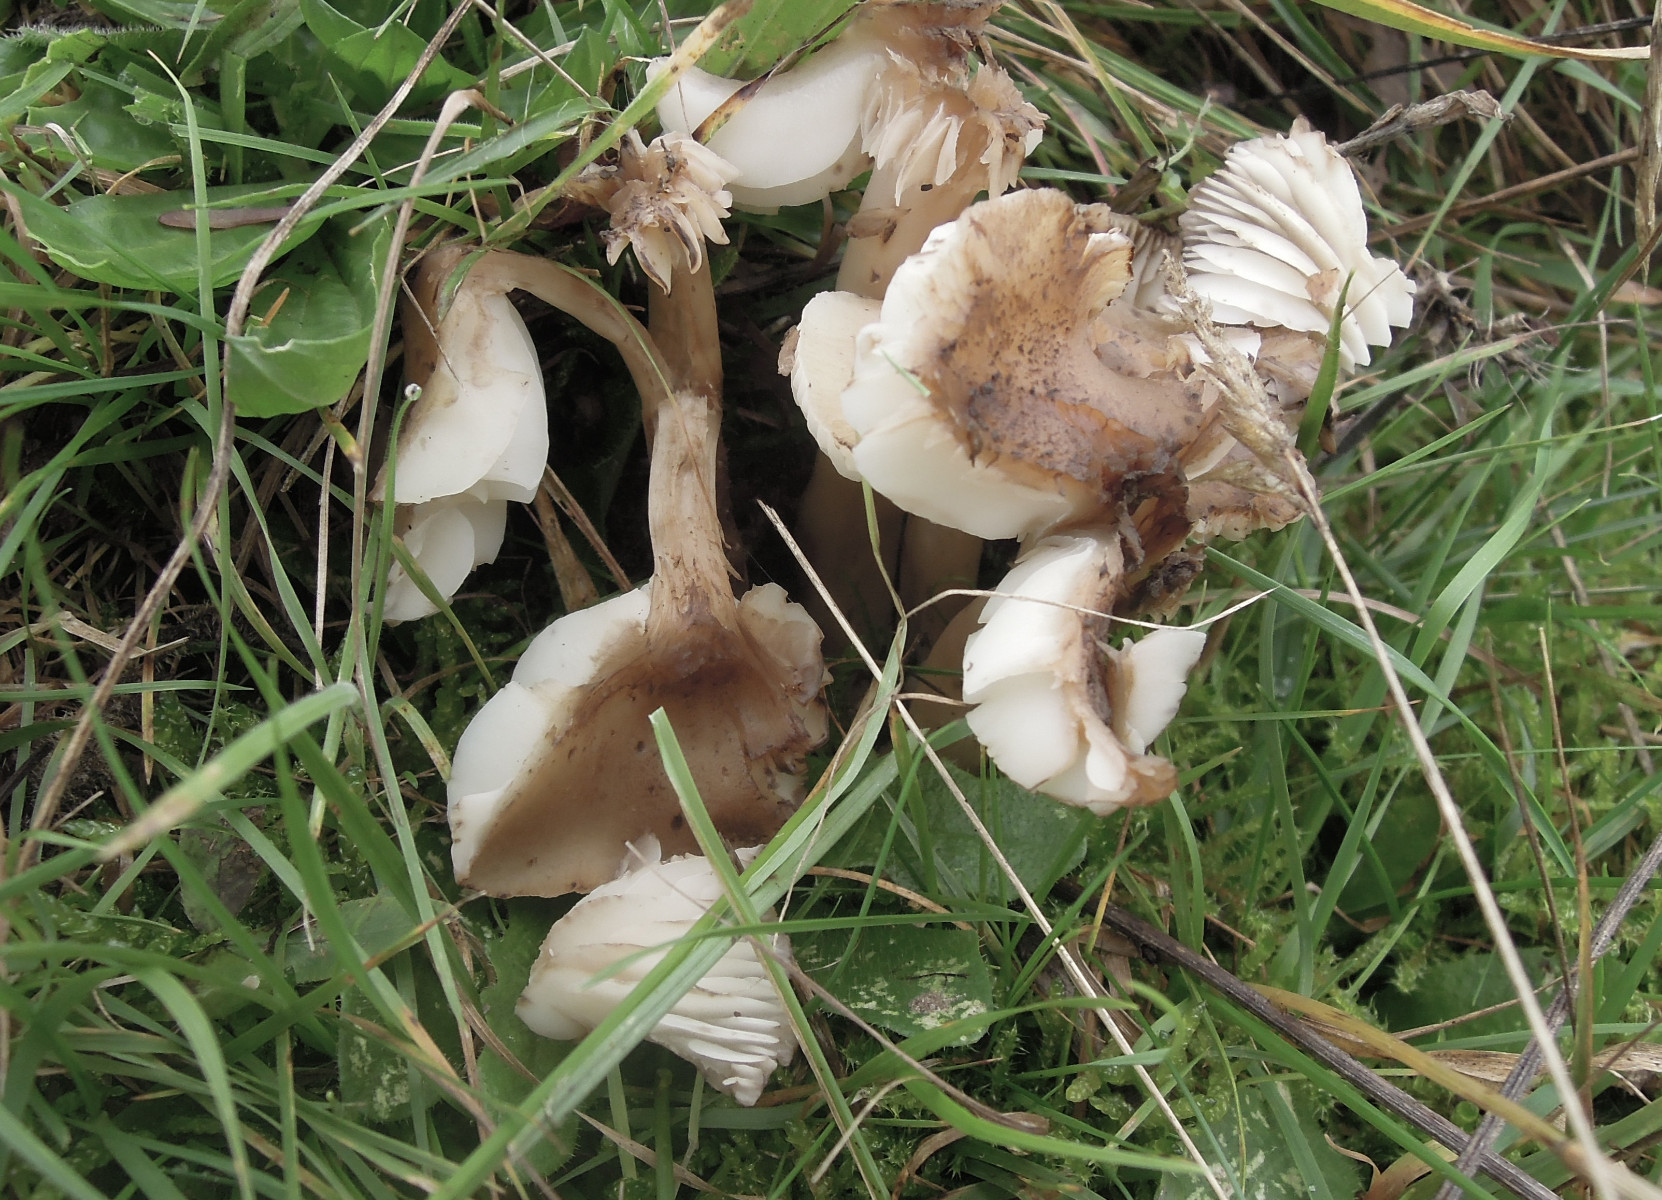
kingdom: Fungi
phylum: Basidiomycota
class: Agaricomycetes
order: Agaricales
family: Hygrophoraceae
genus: Hygrocybe
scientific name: Hygrocybe ingrata
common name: Jensens vokshat
